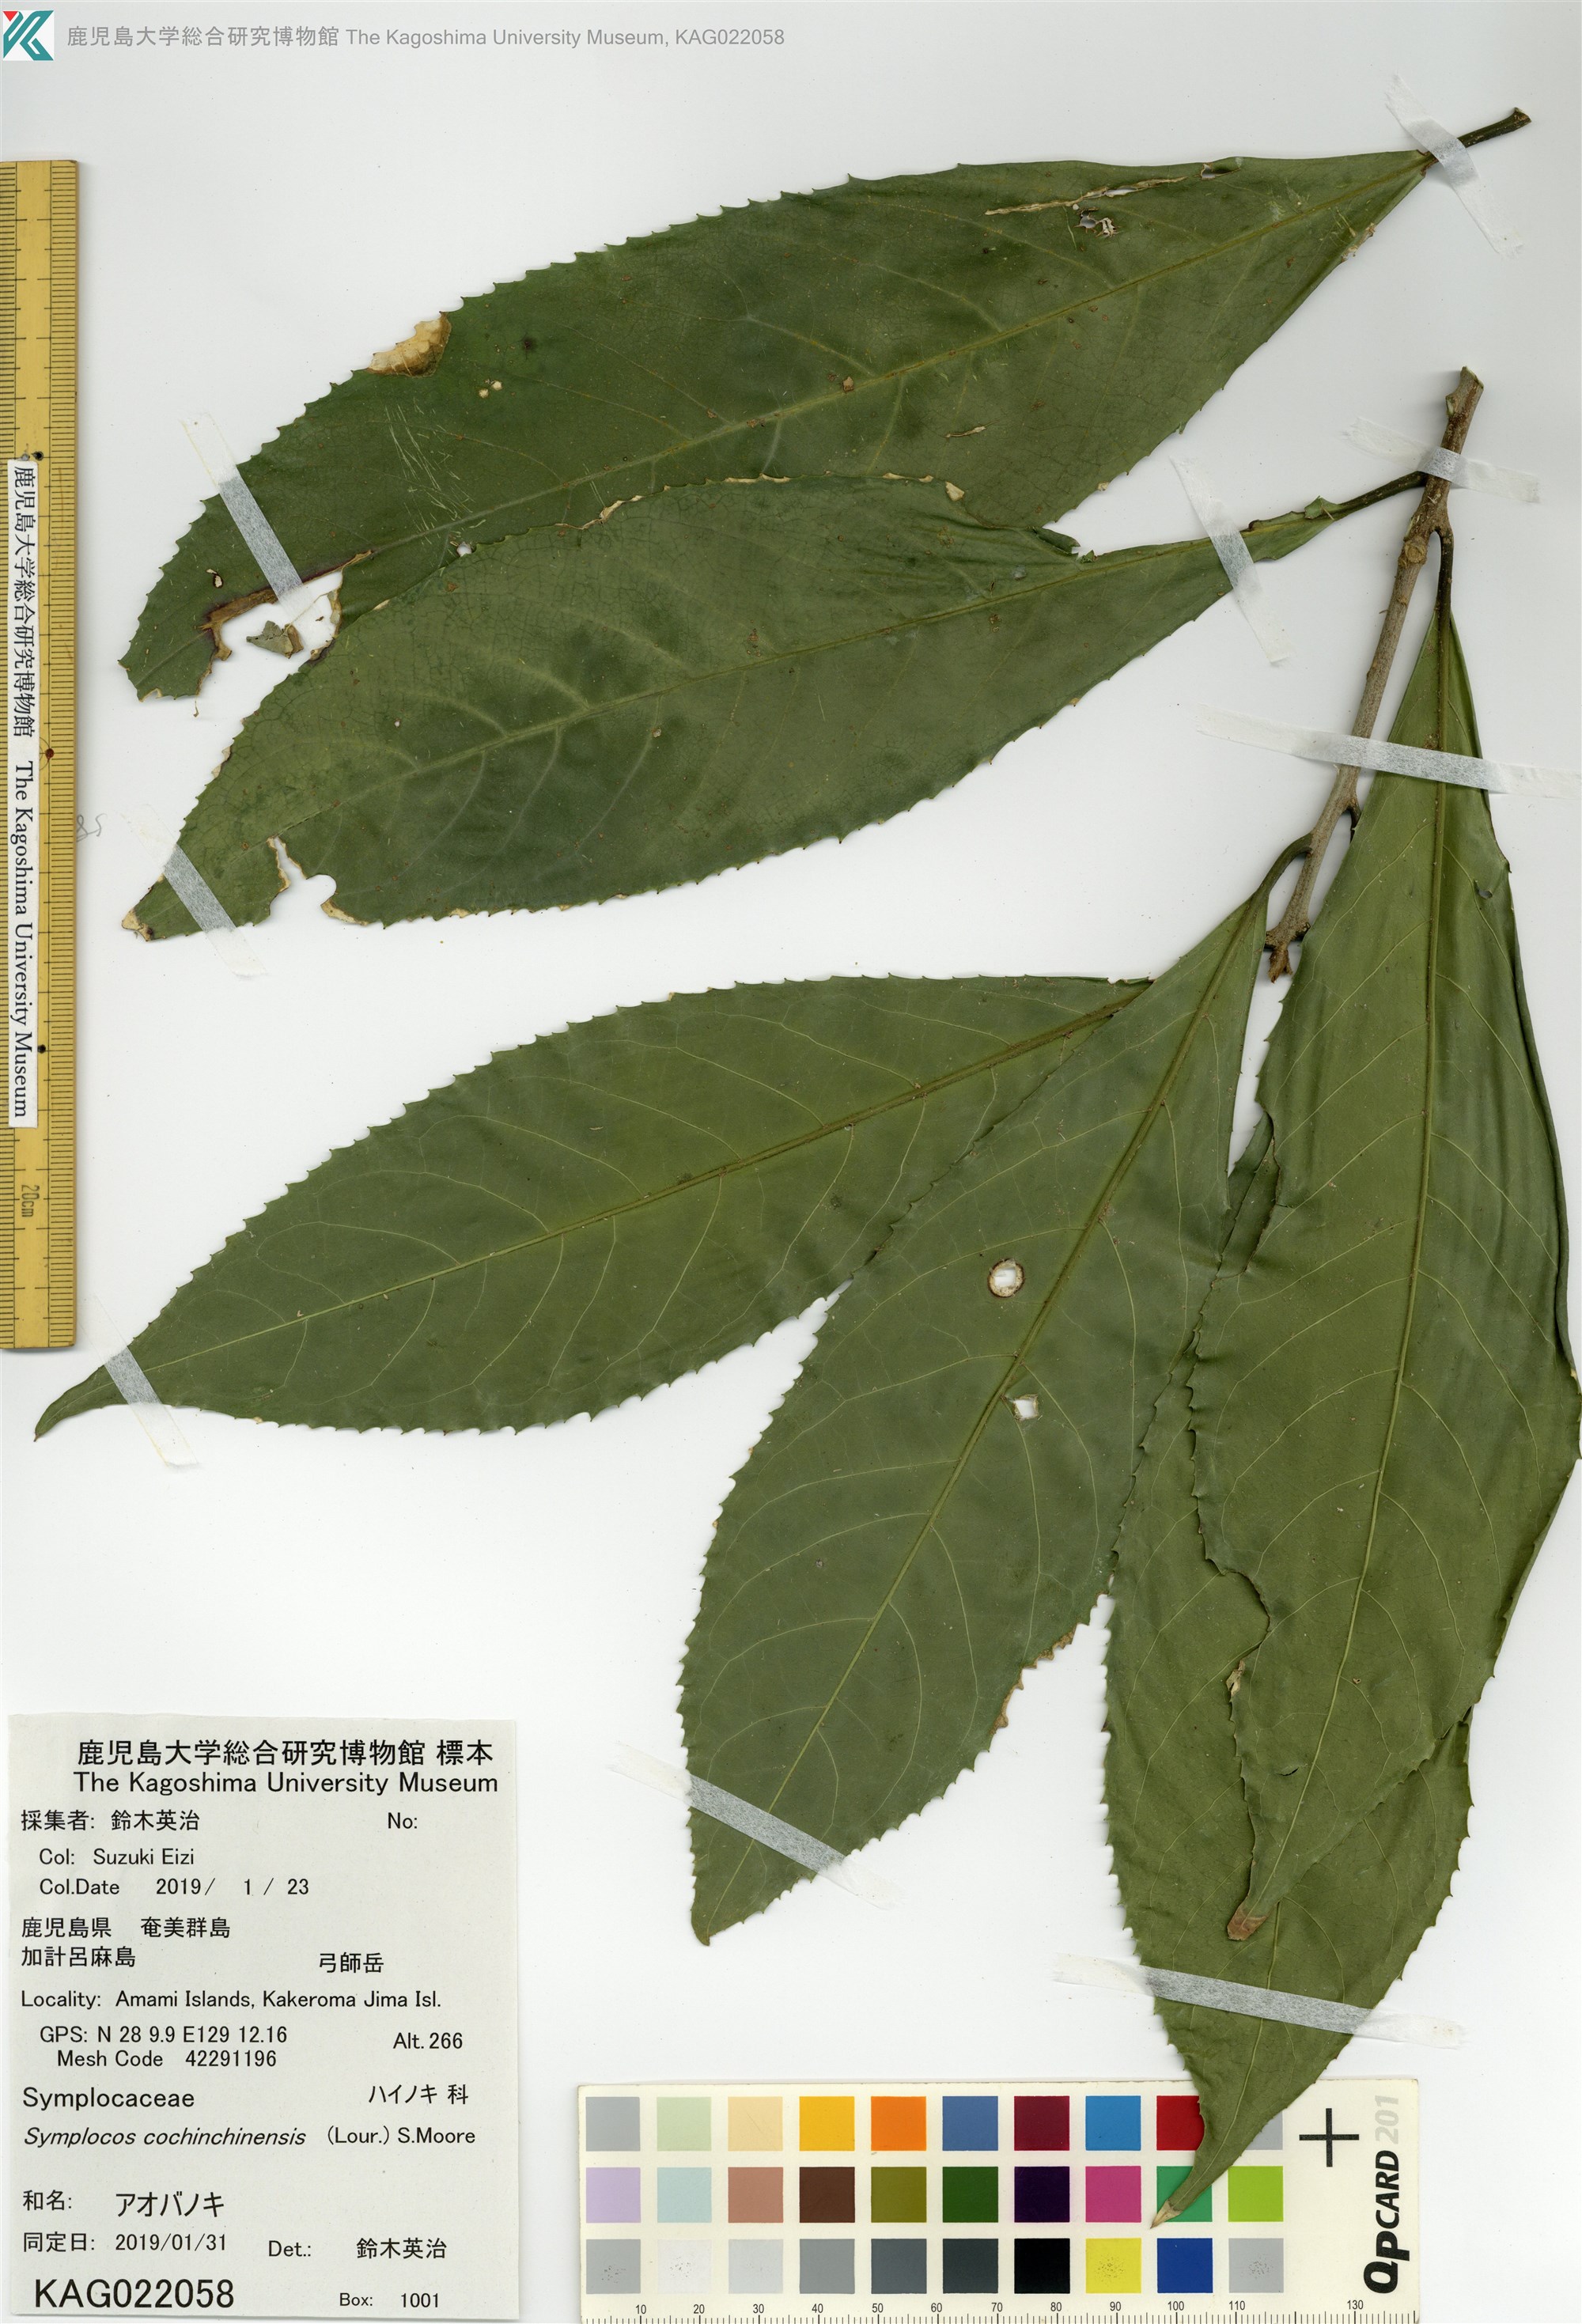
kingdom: Plantae
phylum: Tracheophyta
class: Magnoliopsida
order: Ericales
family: Symplocaceae
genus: Symplocos
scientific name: Symplocos cochinchinensis
